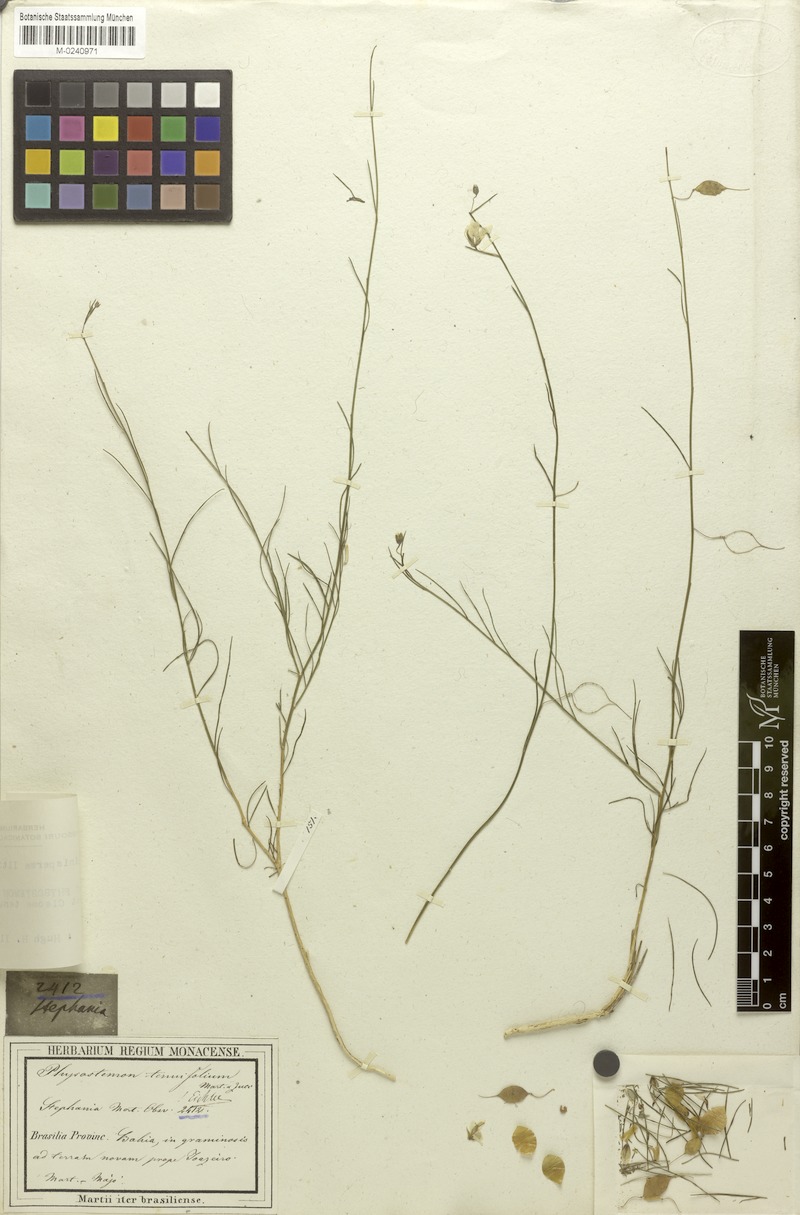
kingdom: Plantae
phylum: Tracheophyta
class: Magnoliopsida
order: Brassicales
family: Cleomaceae
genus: Physostemon
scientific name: Physostemon tenuifolius
